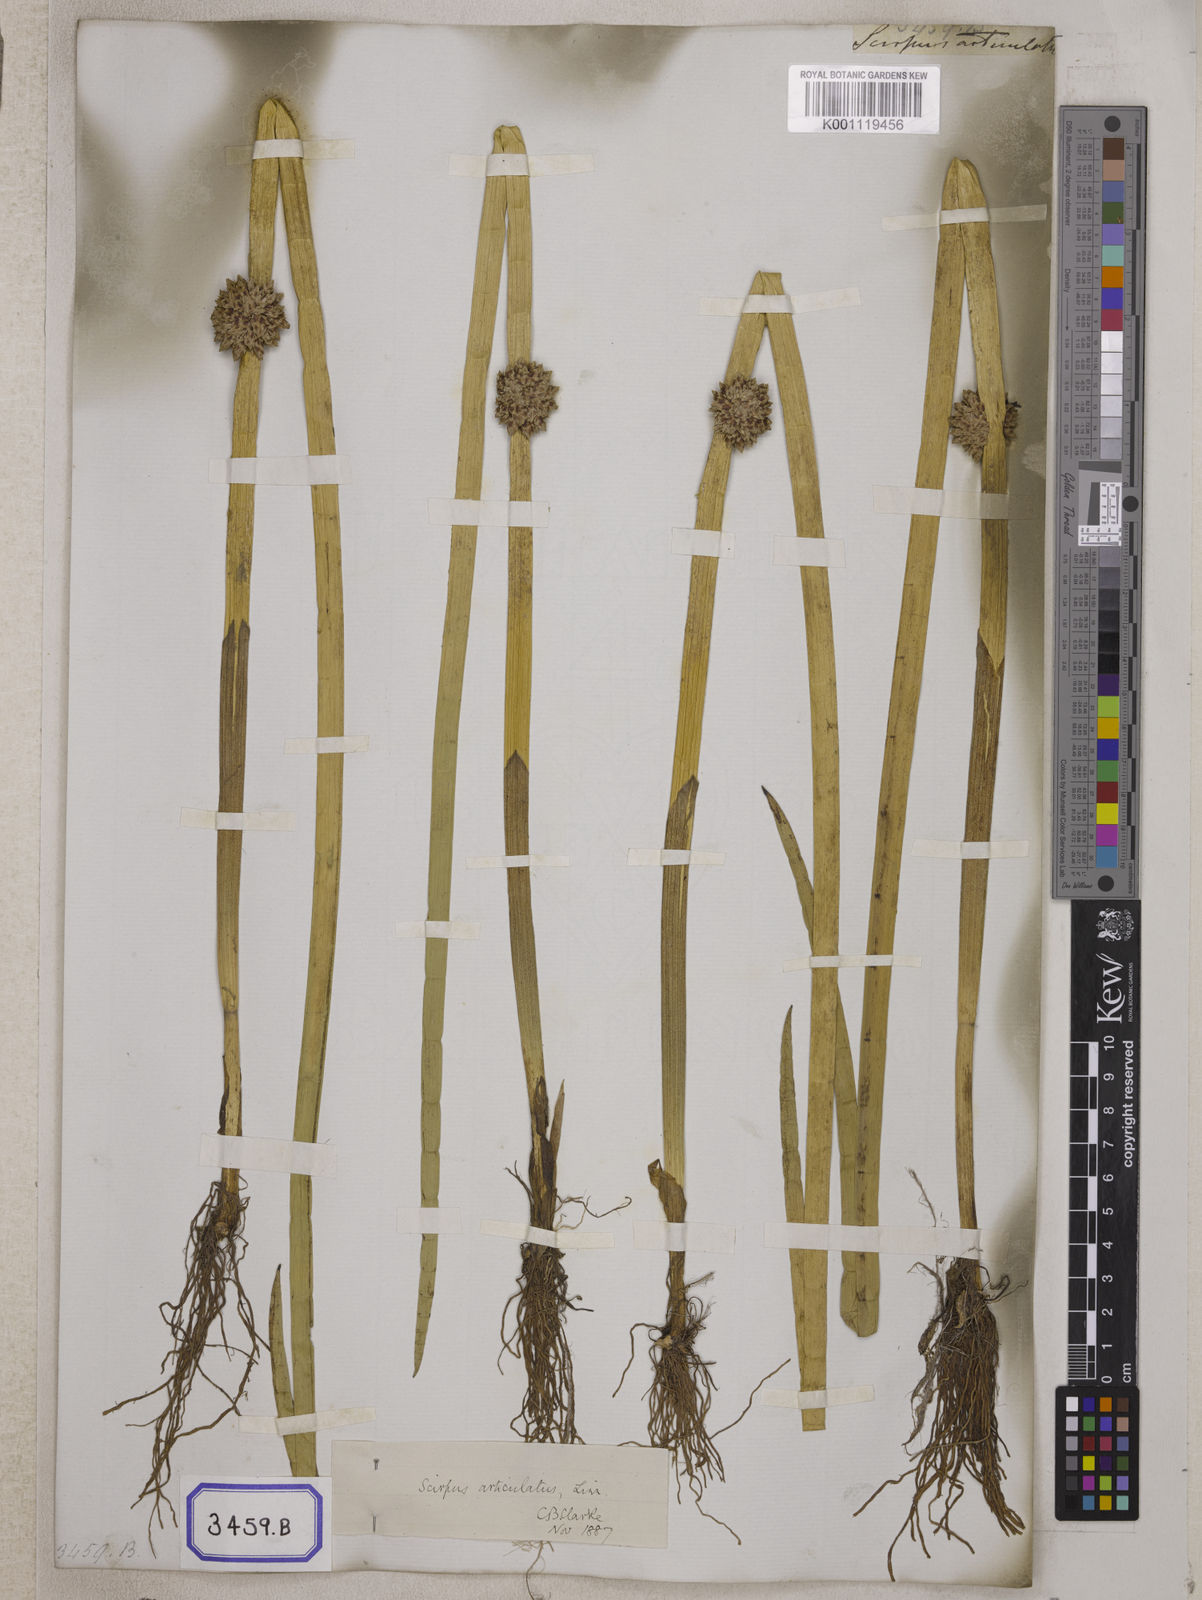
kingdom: Plantae
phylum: Tracheophyta
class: Liliopsida
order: Poales
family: Cyperaceae
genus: Scirpus
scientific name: Scirpus
